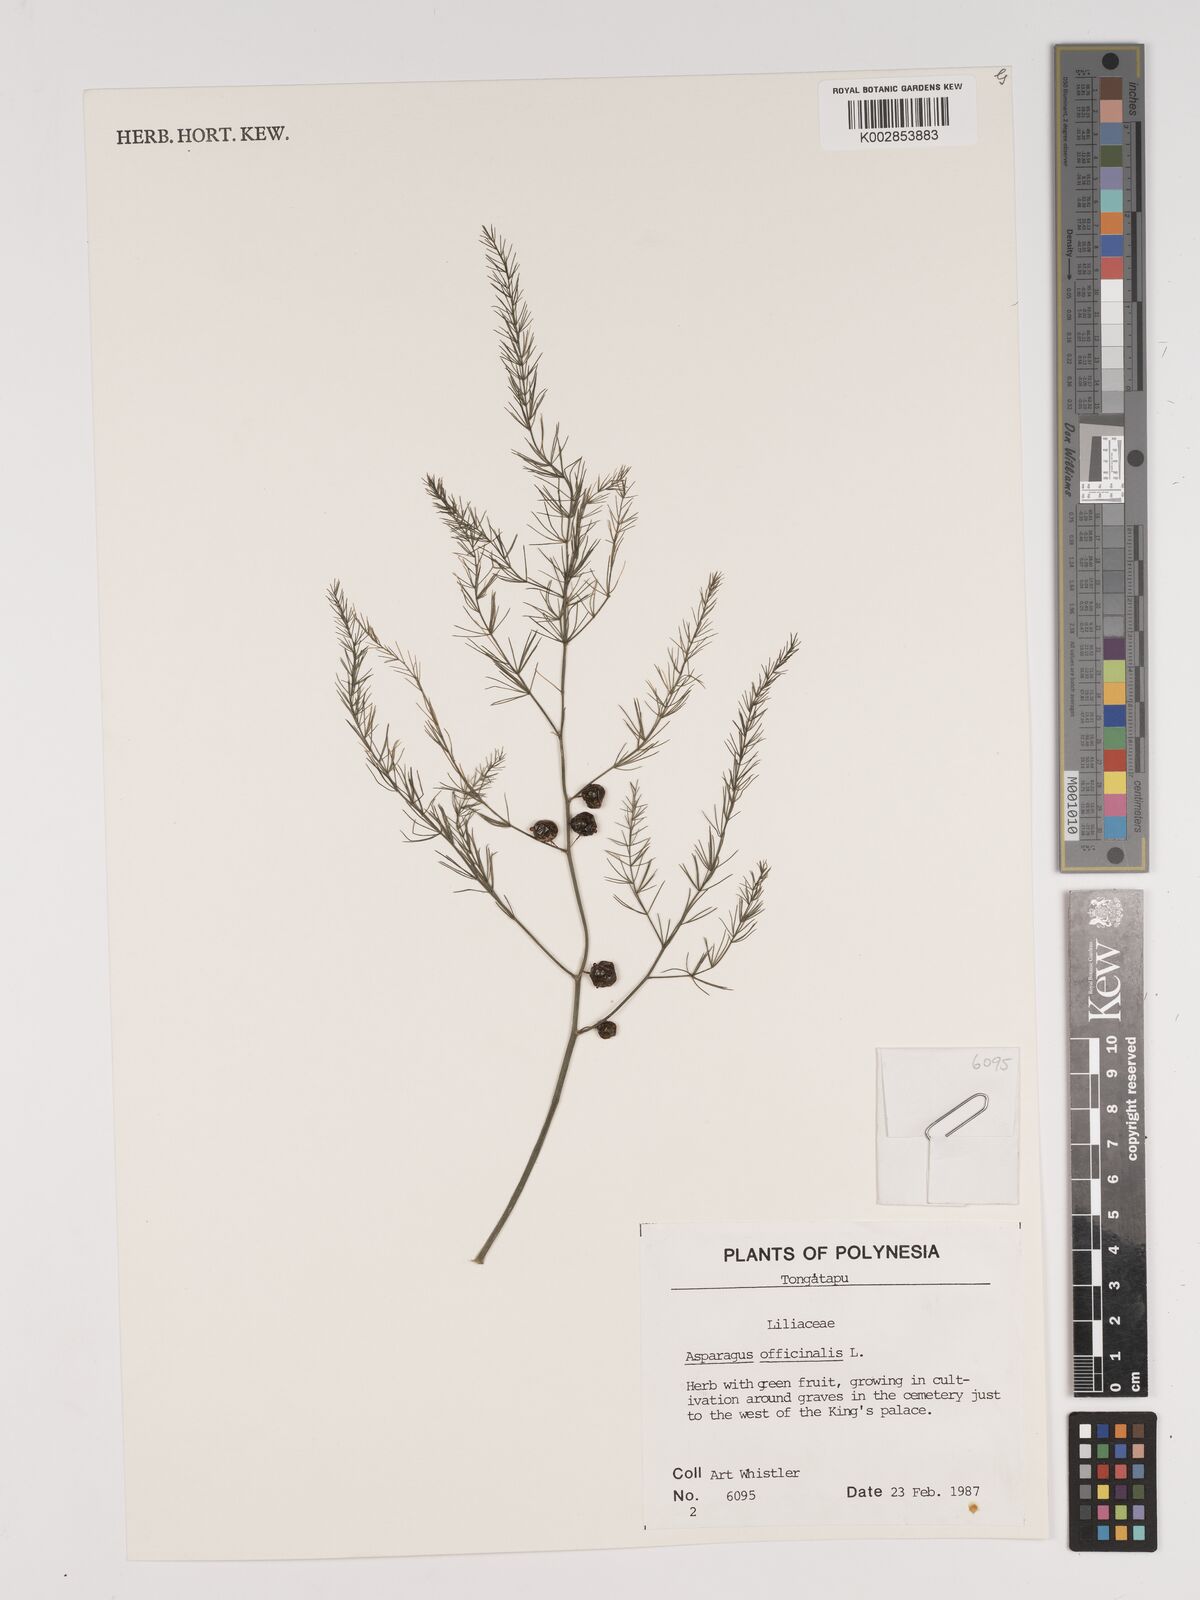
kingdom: Plantae
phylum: Tracheophyta
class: Liliopsida
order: Asparagales
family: Asparagaceae
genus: Asparagus
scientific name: Asparagus officinalis
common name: Garden asparagus
